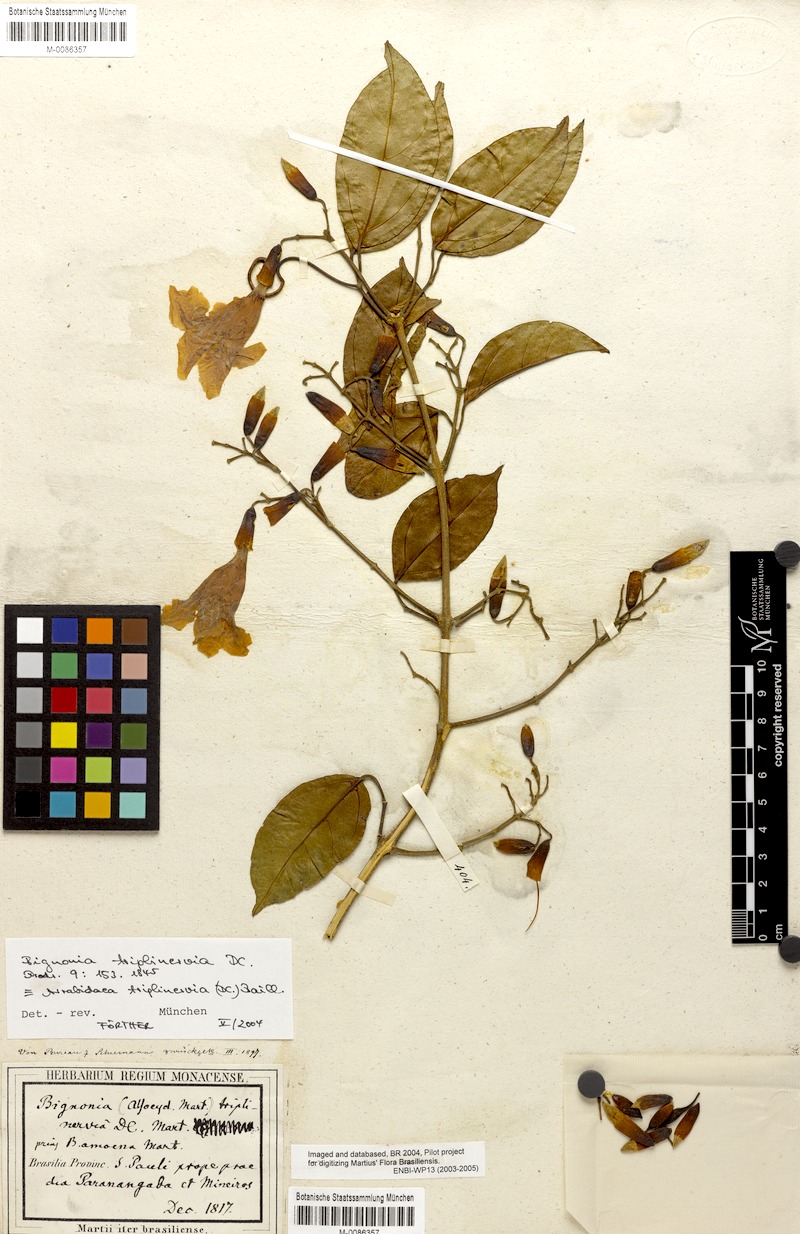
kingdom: Plantae
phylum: Tracheophyta
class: Magnoliopsida
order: Lamiales
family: Bignoniaceae
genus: Fridericia
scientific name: Fridericia triplinervia
